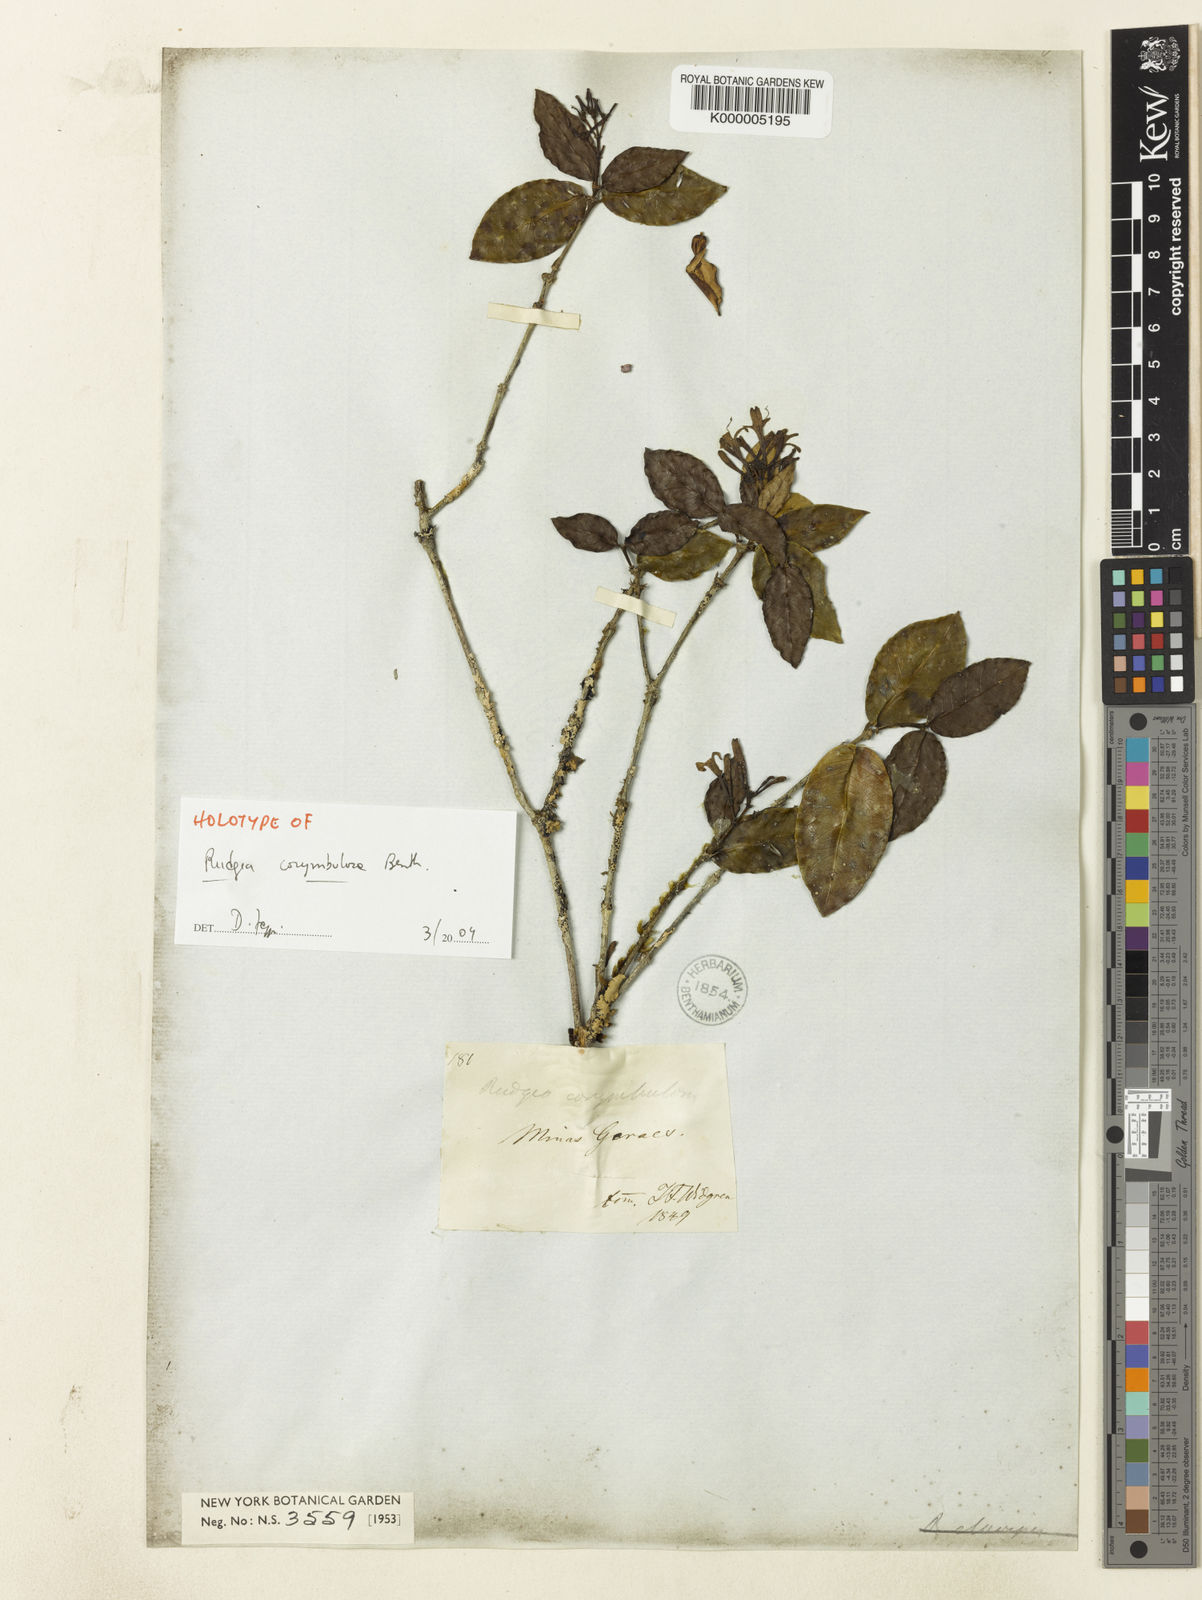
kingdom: Plantae
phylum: Tracheophyta
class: Magnoliopsida
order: Gentianales
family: Rubiaceae
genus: Rudgea
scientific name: Rudgea corymbulosa
